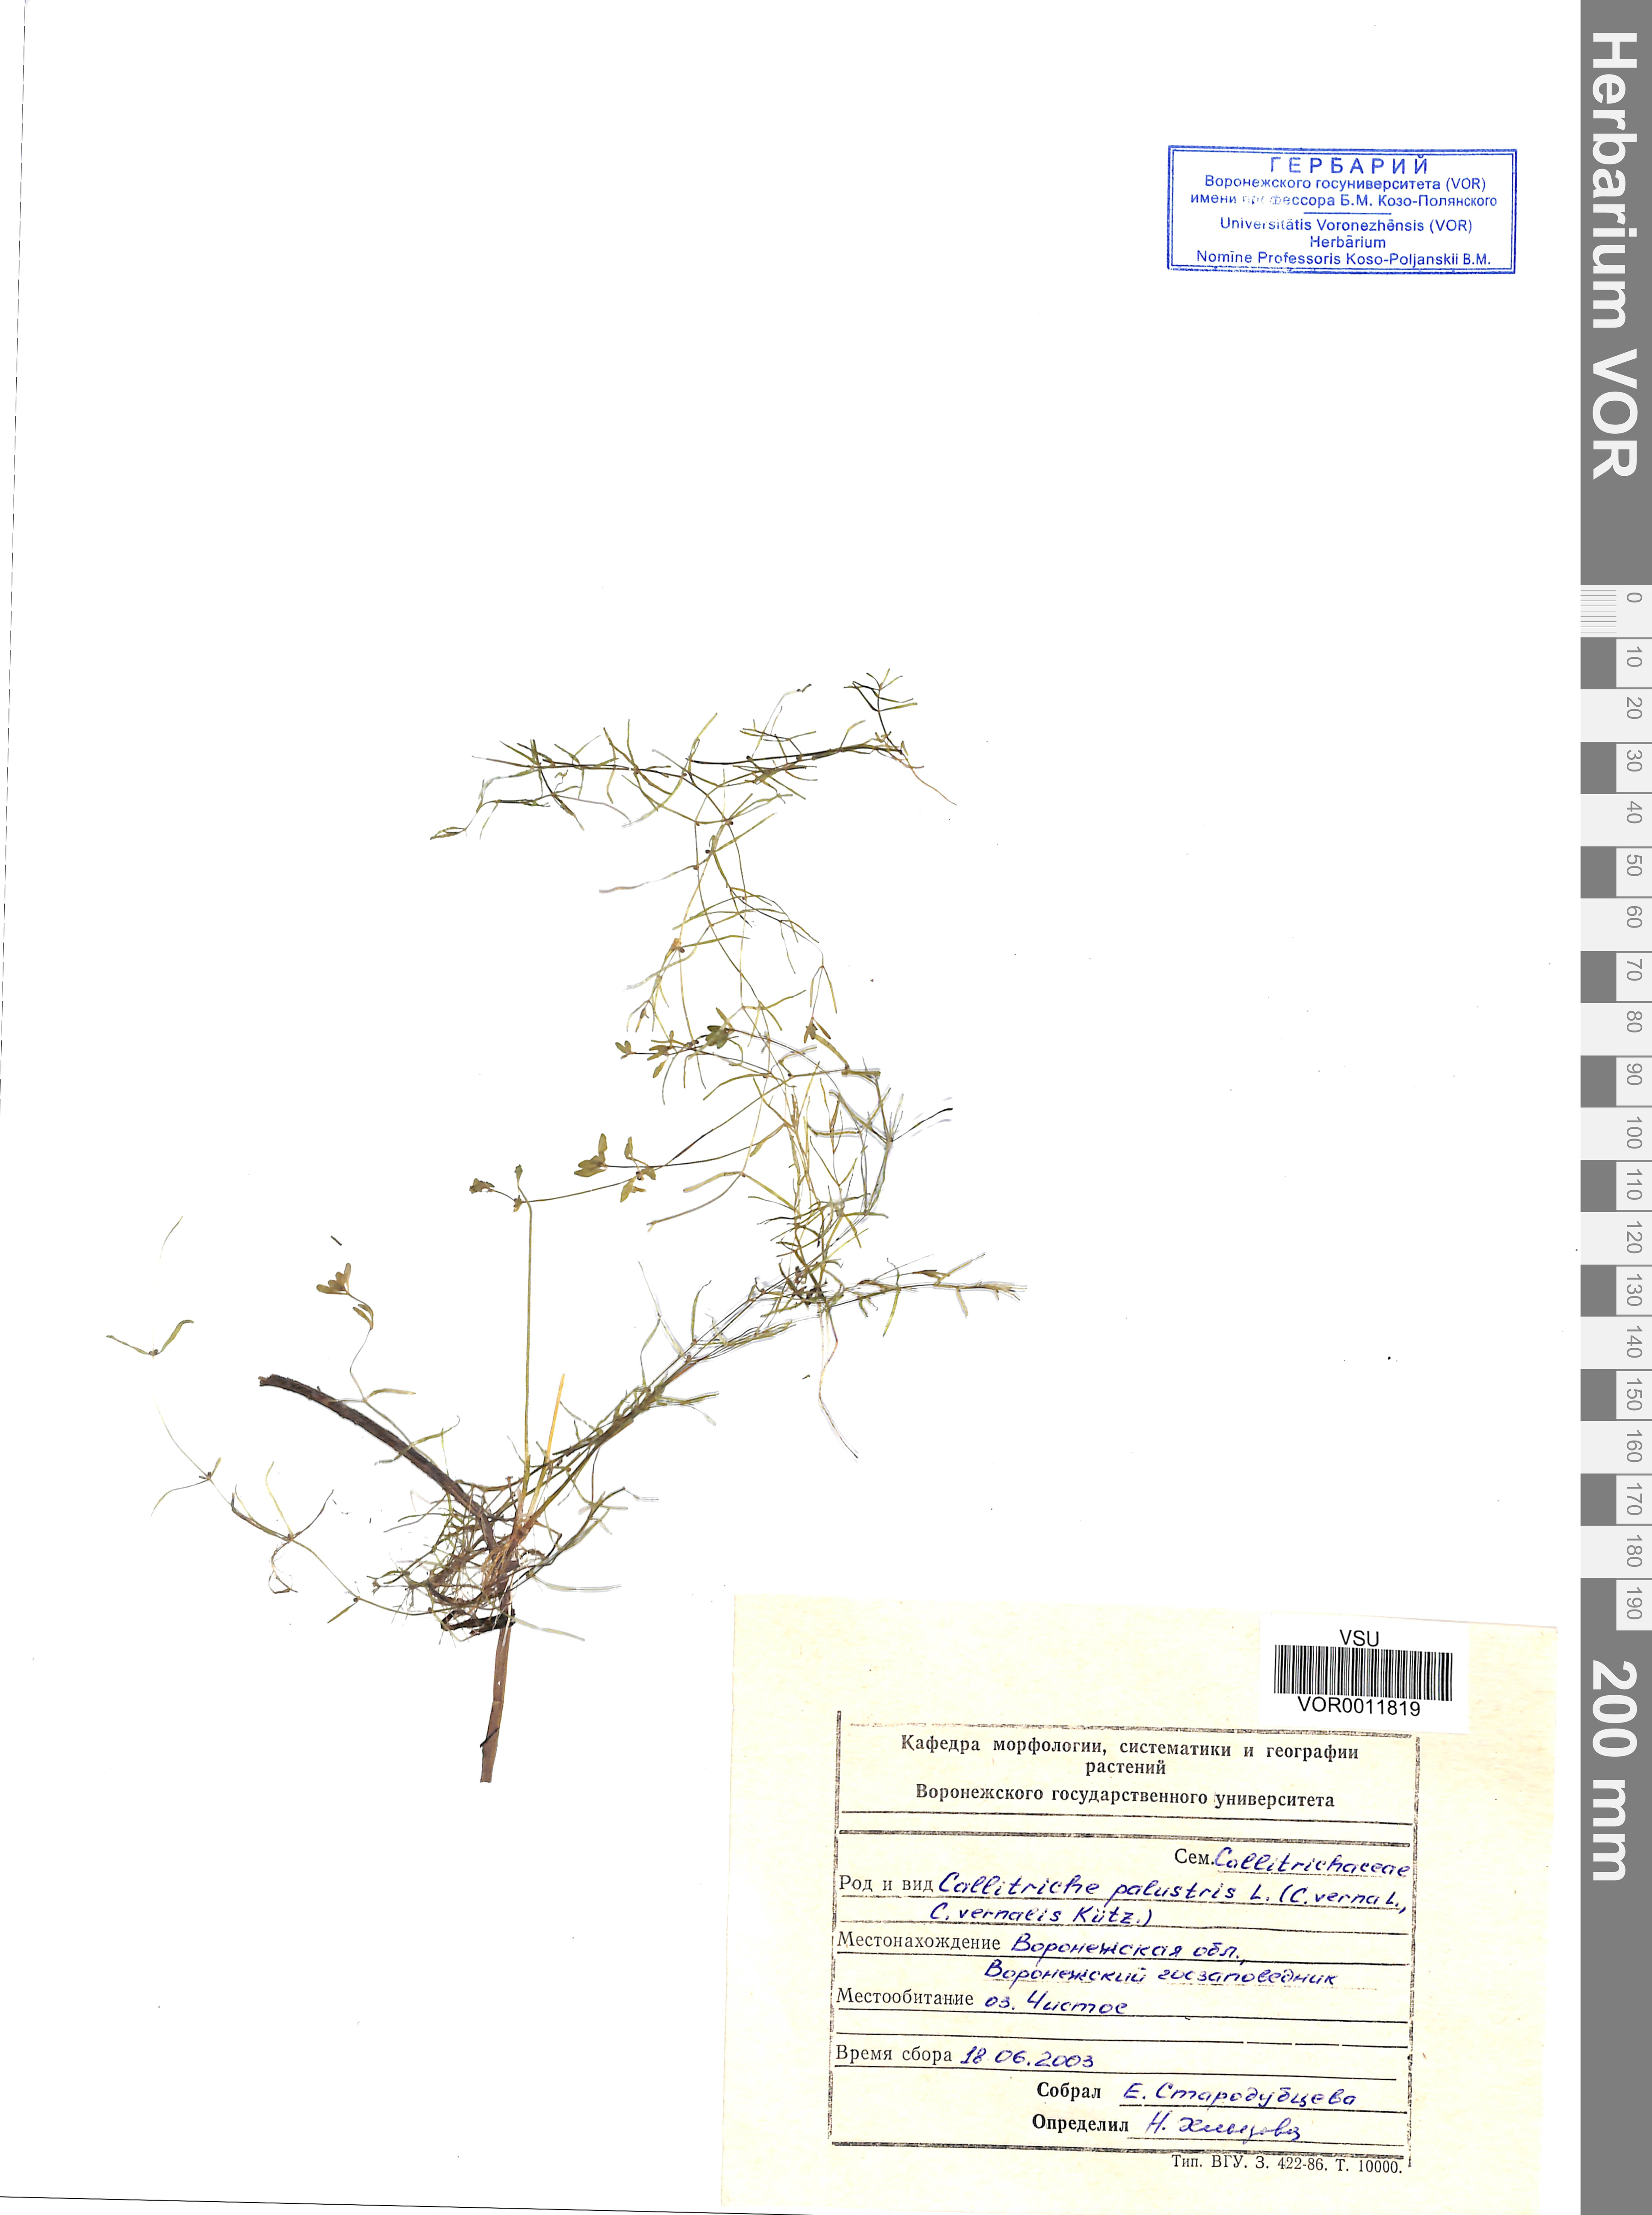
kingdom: Plantae
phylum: Tracheophyta
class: Magnoliopsida
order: Lamiales
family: Plantaginaceae
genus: Callitriche
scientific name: Callitriche palustris
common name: Spring water-starwort
